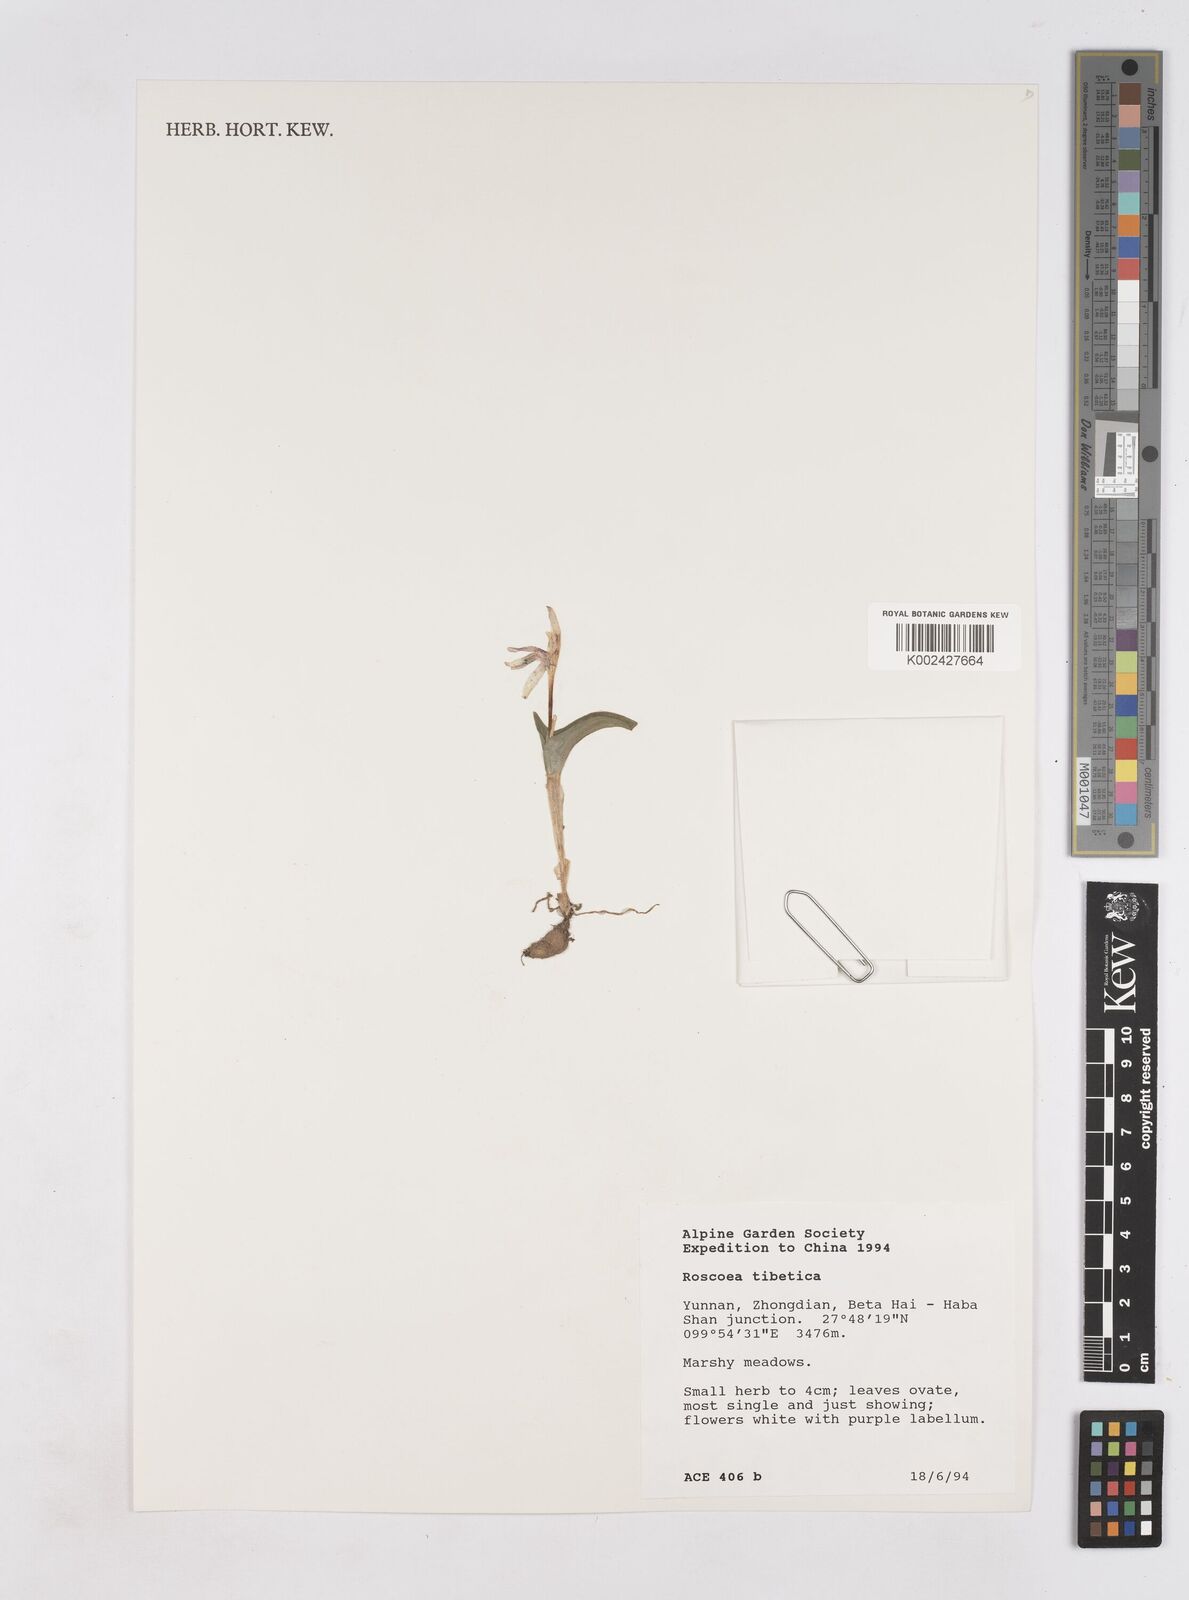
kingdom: Plantae
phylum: Tracheophyta
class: Liliopsida
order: Zingiberales
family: Zingiberaceae
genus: Roscoea
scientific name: Roscoea tibetica
